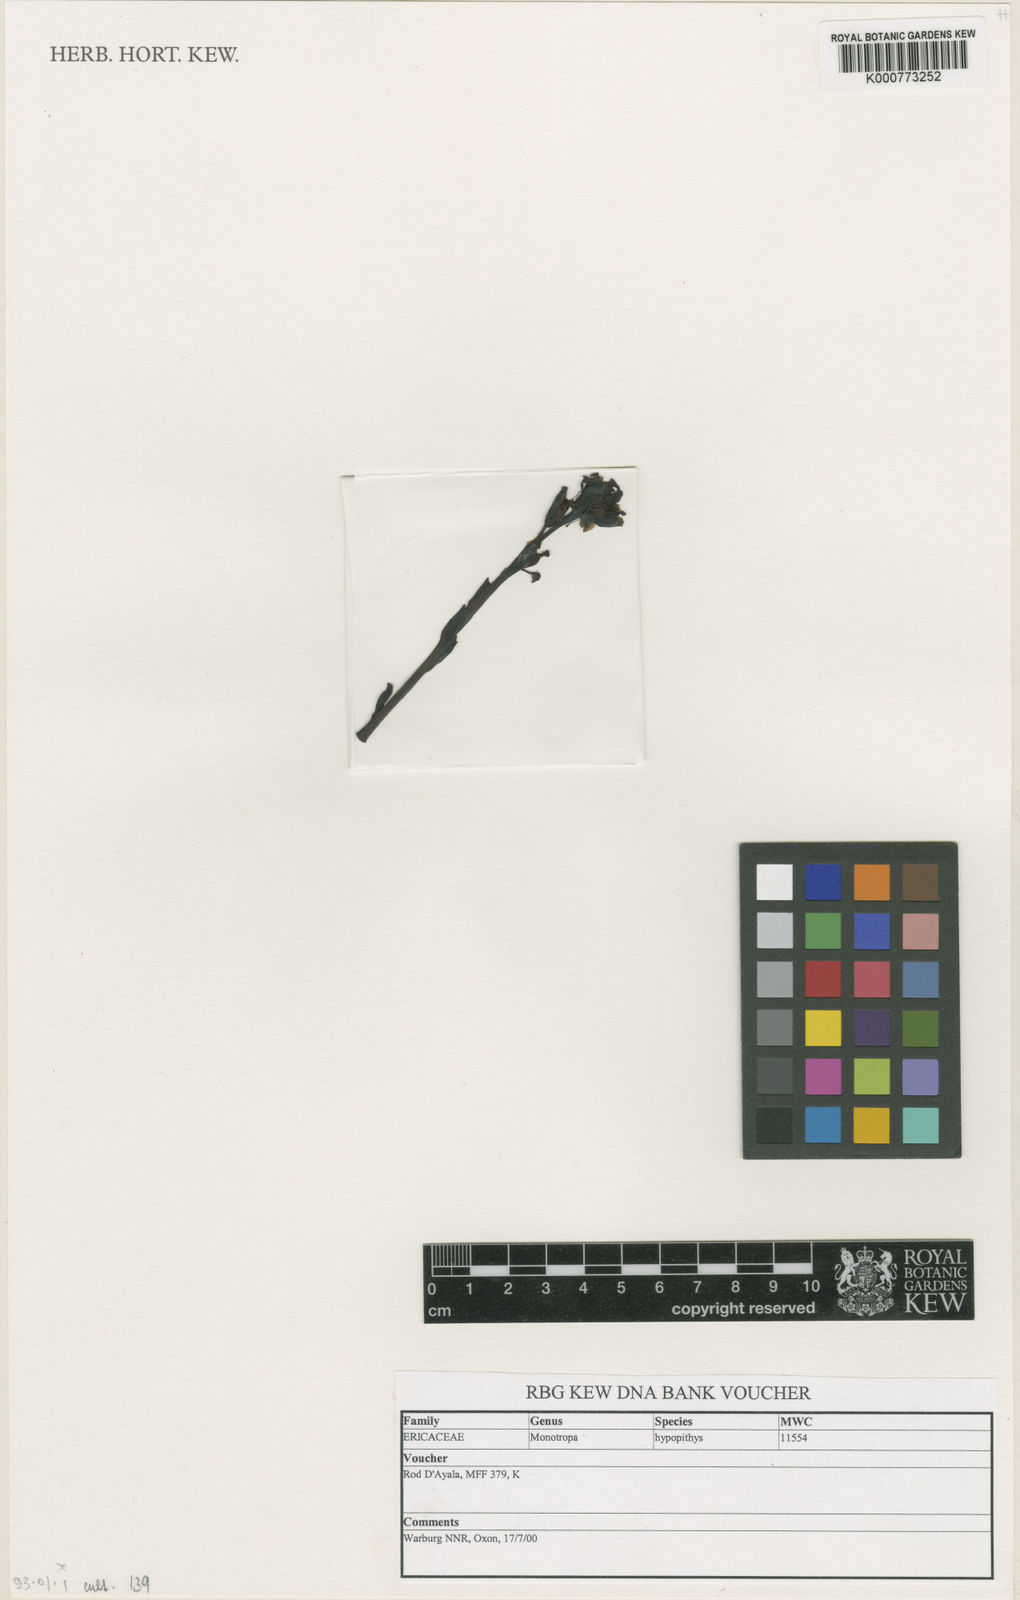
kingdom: Plantae
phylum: Tracheophyta
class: Magnoliopsida
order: Ericales
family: Ericaceae
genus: Monotropa
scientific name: Monotropa
